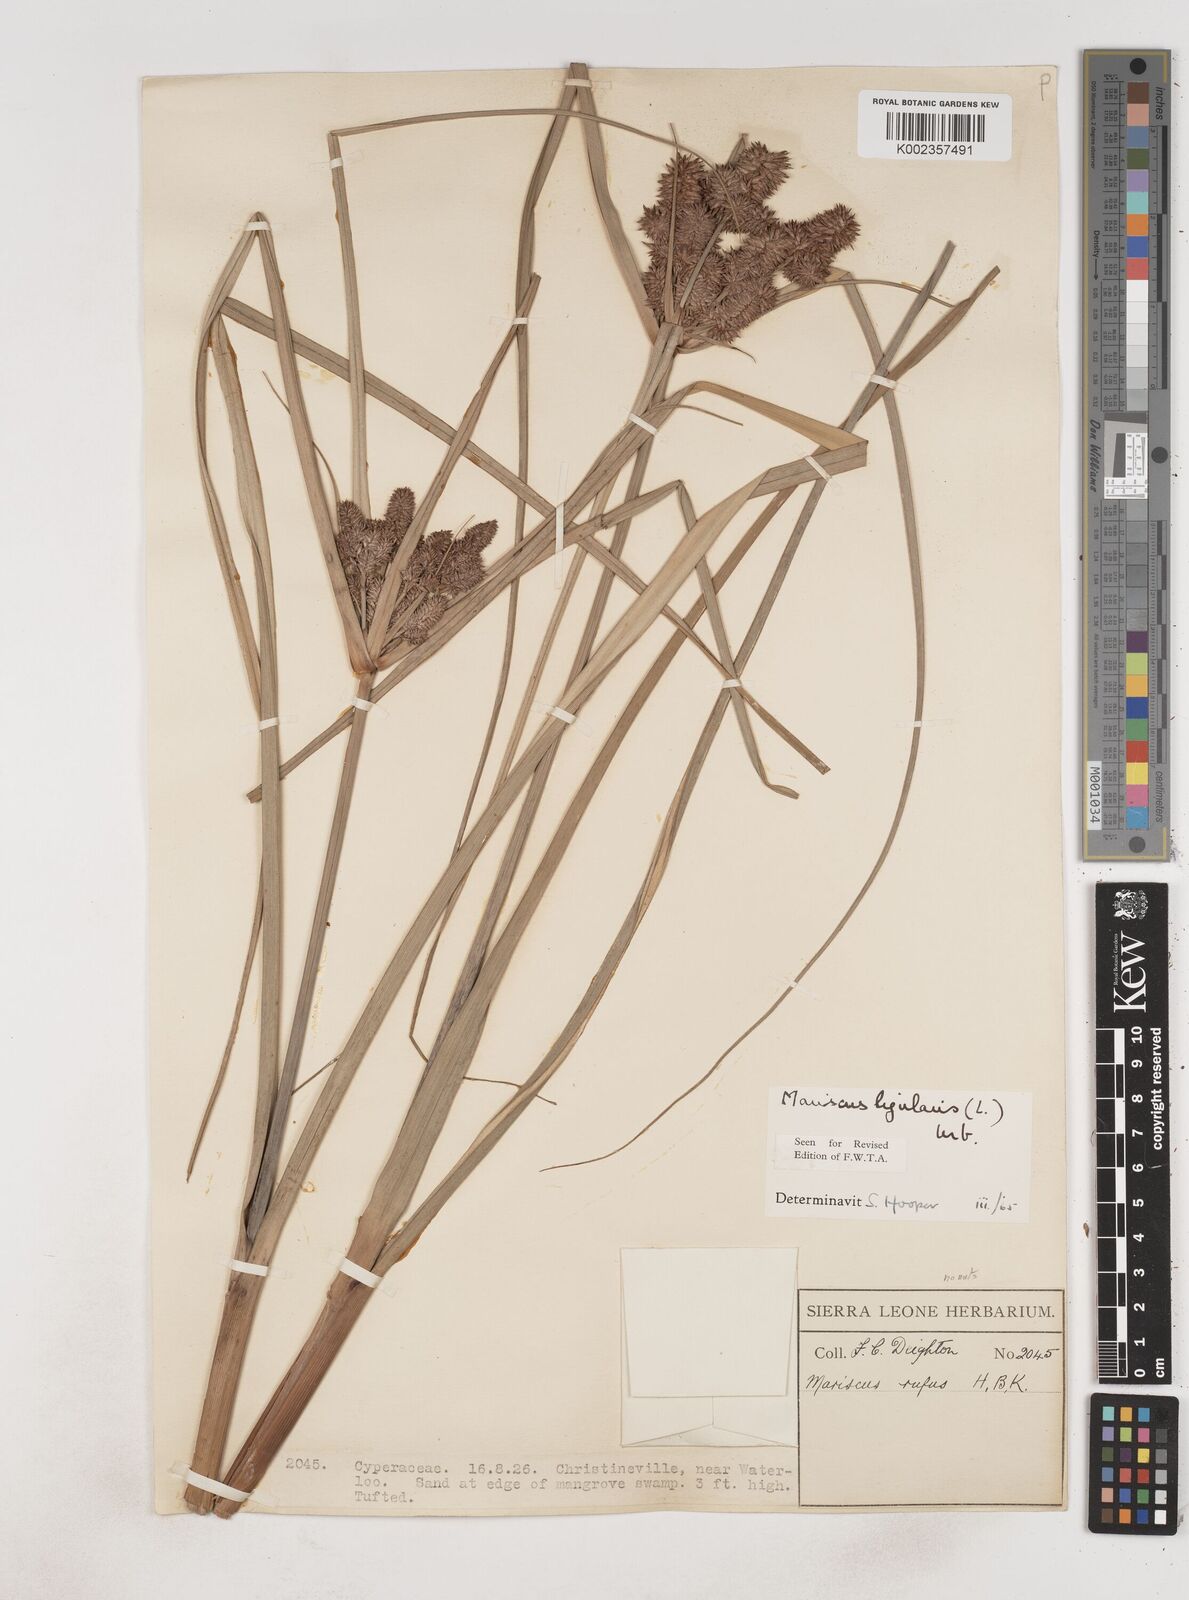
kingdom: Plantae
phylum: Tracheophyta
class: Liliopsida
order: Poales
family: Cyperaceae
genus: Cyperus
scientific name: Cyperus ligularis
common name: Swamp flat sedge
